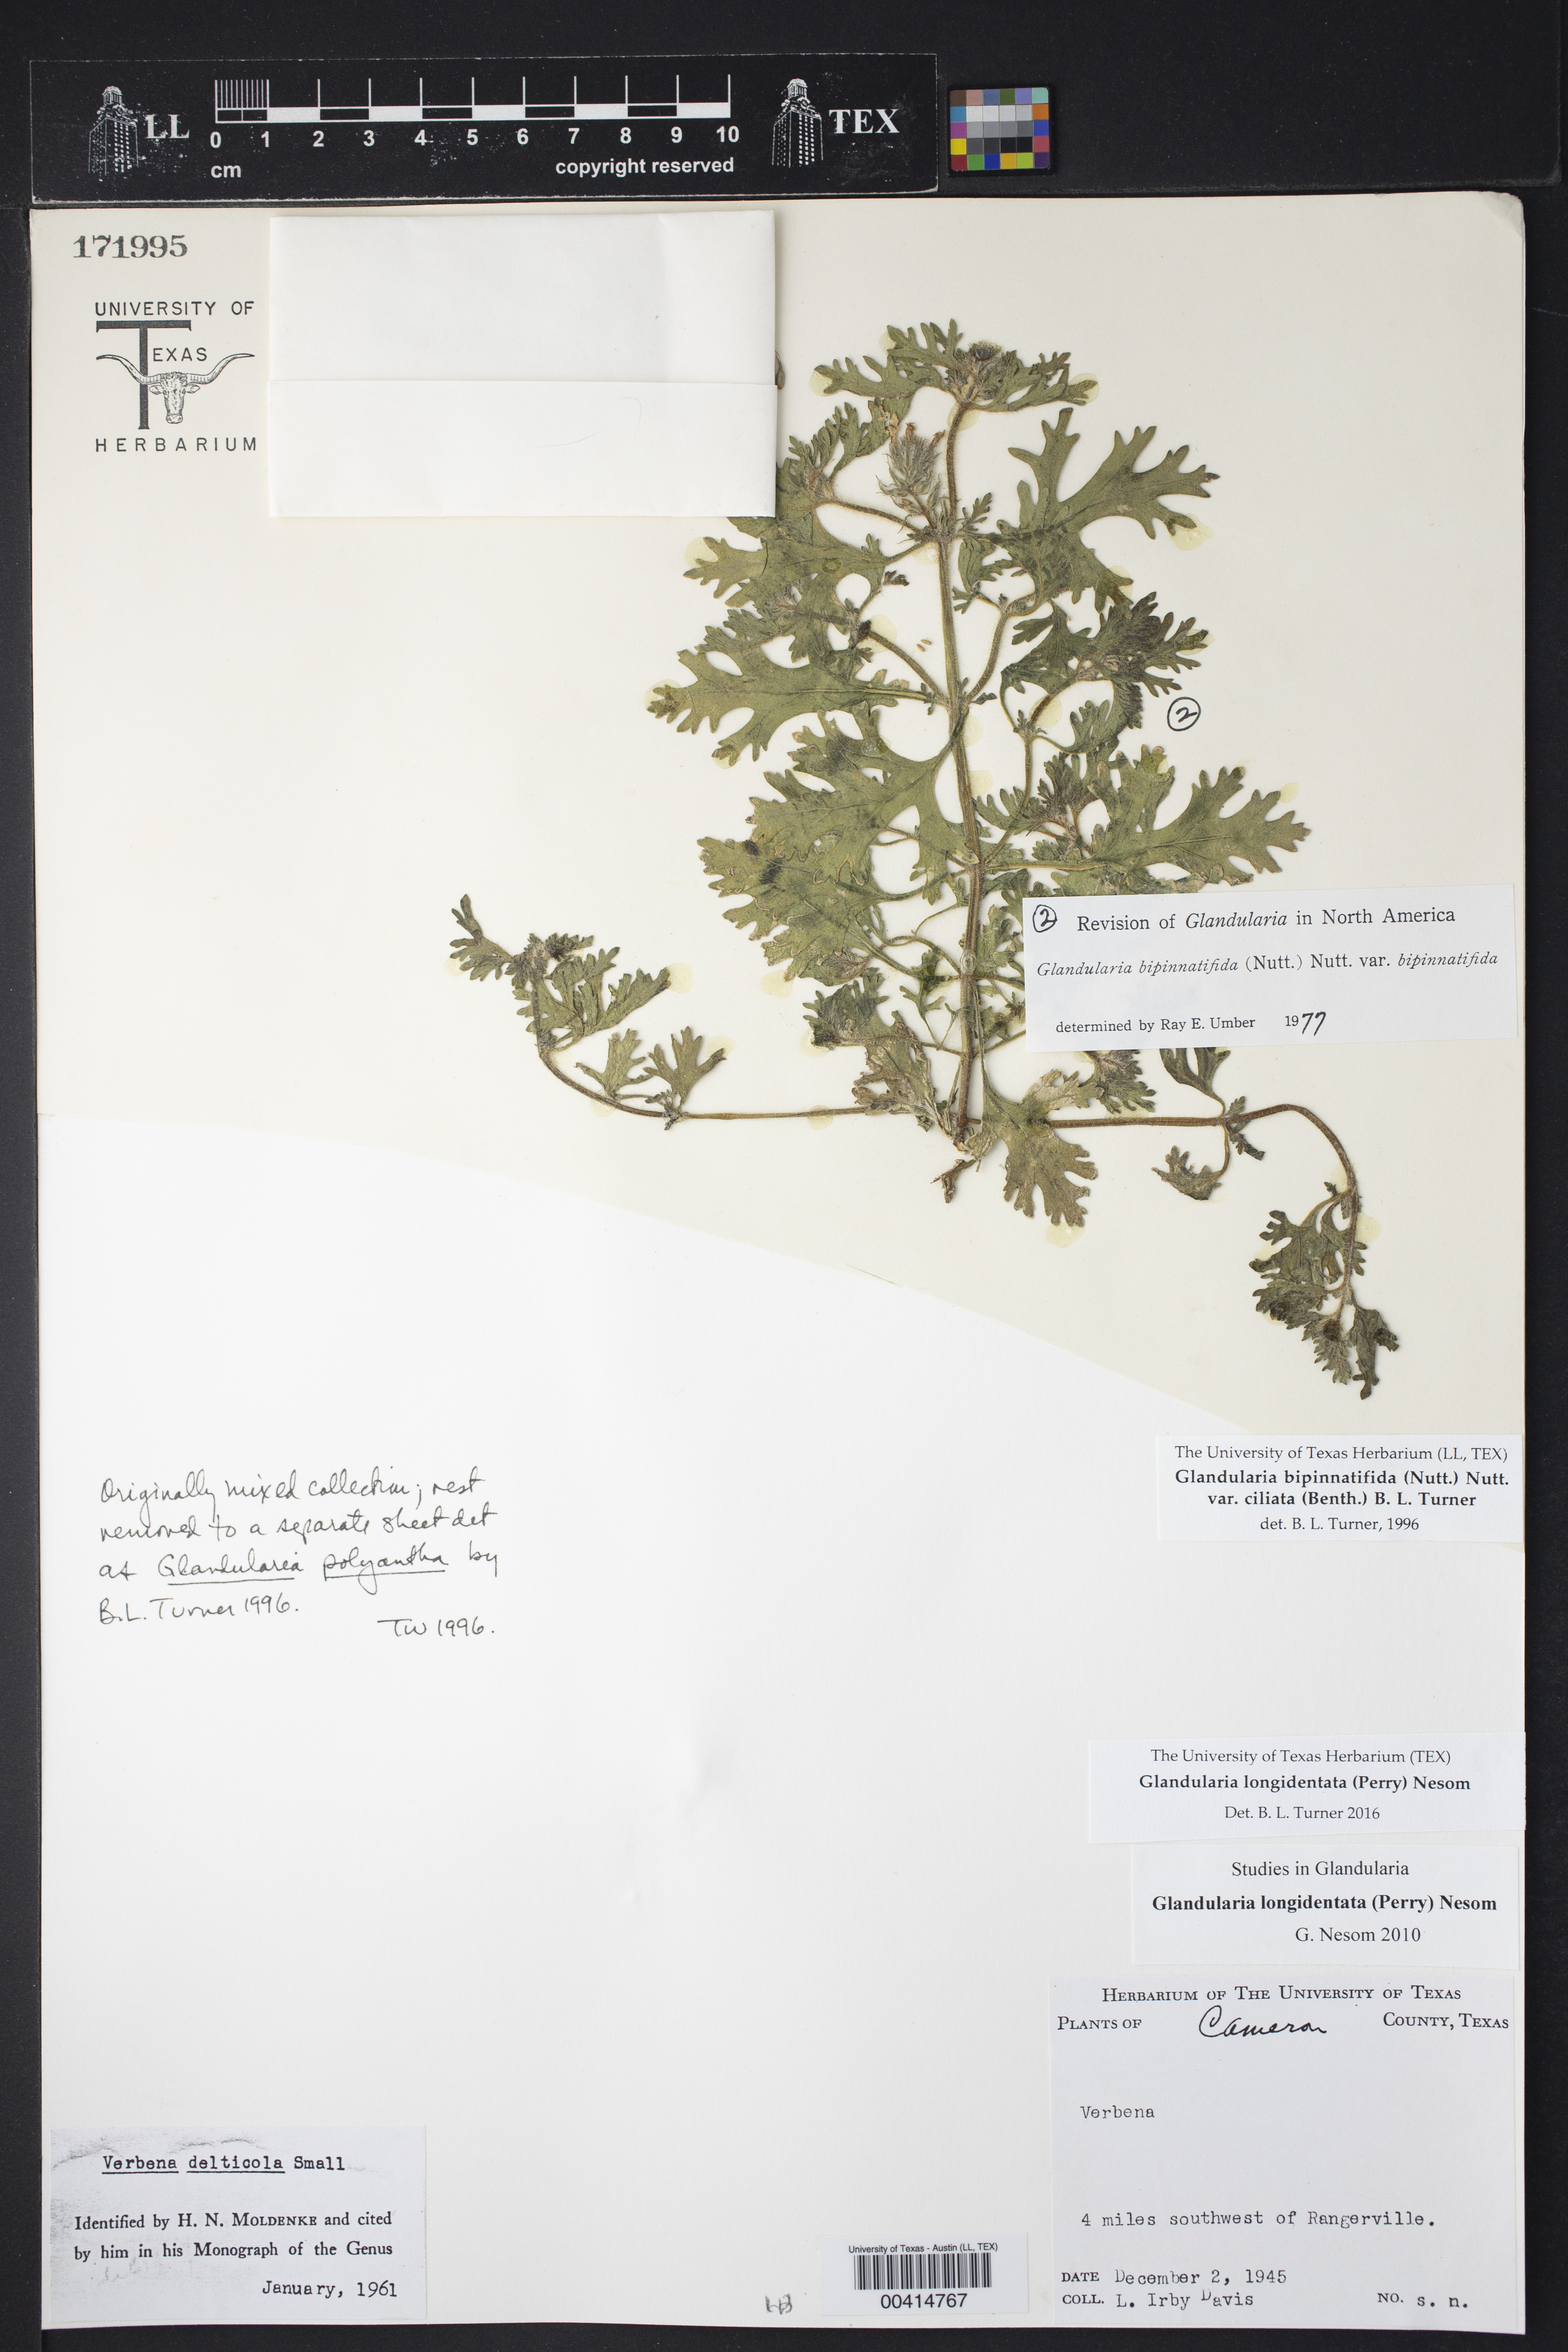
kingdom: Plantae
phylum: Tracheophyta
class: Magnoliopsida
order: Lamiales
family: Verbenaceae
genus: Verbena
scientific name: Verbena polyantha
